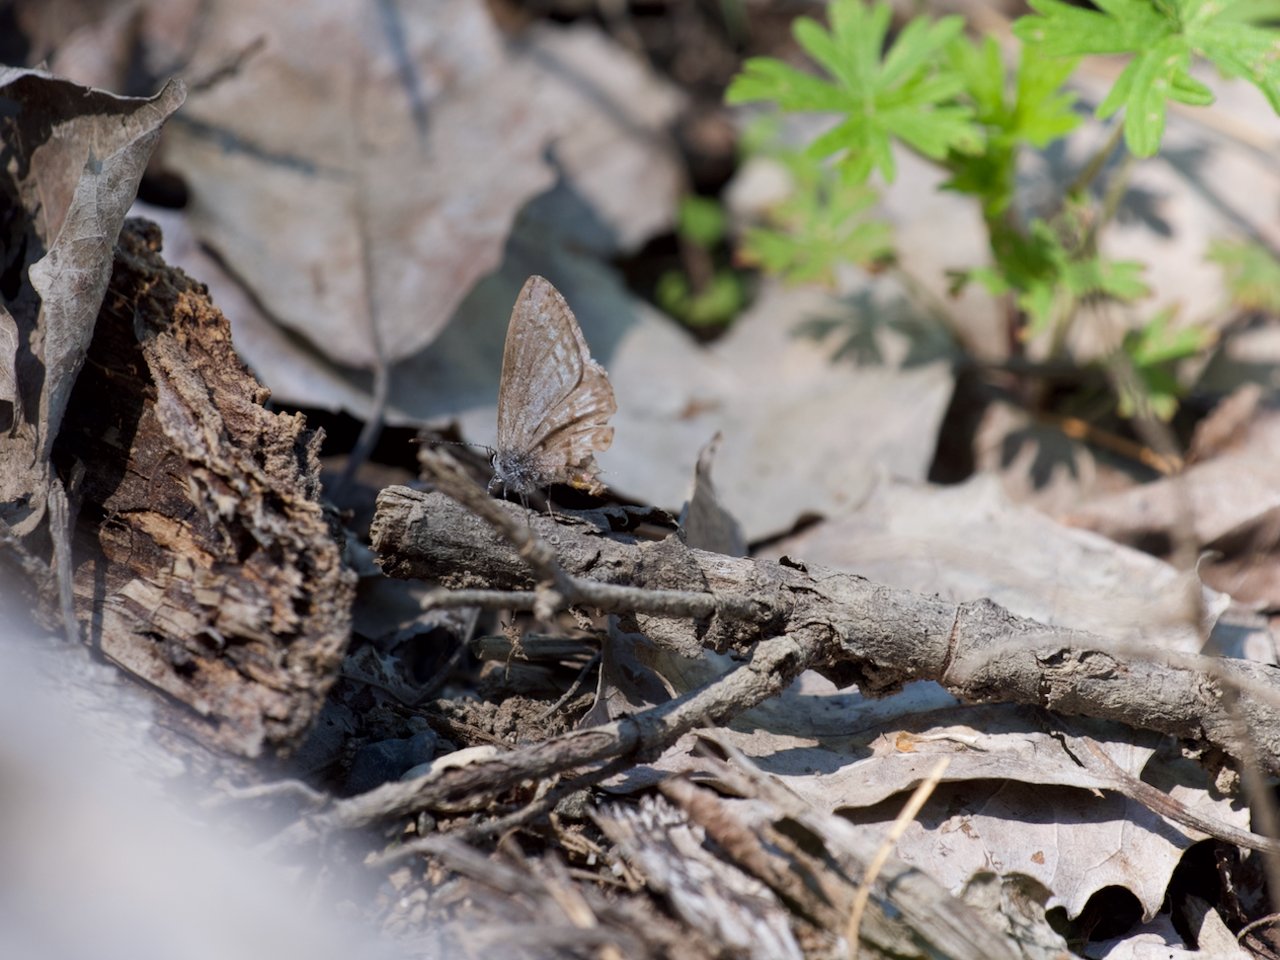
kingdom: Animalia
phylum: Arthropoda
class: Insecta
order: Lepidoptera
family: Lycaenidae
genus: Celastrina
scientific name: Celastrina lucia
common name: Northern Spring Azure
